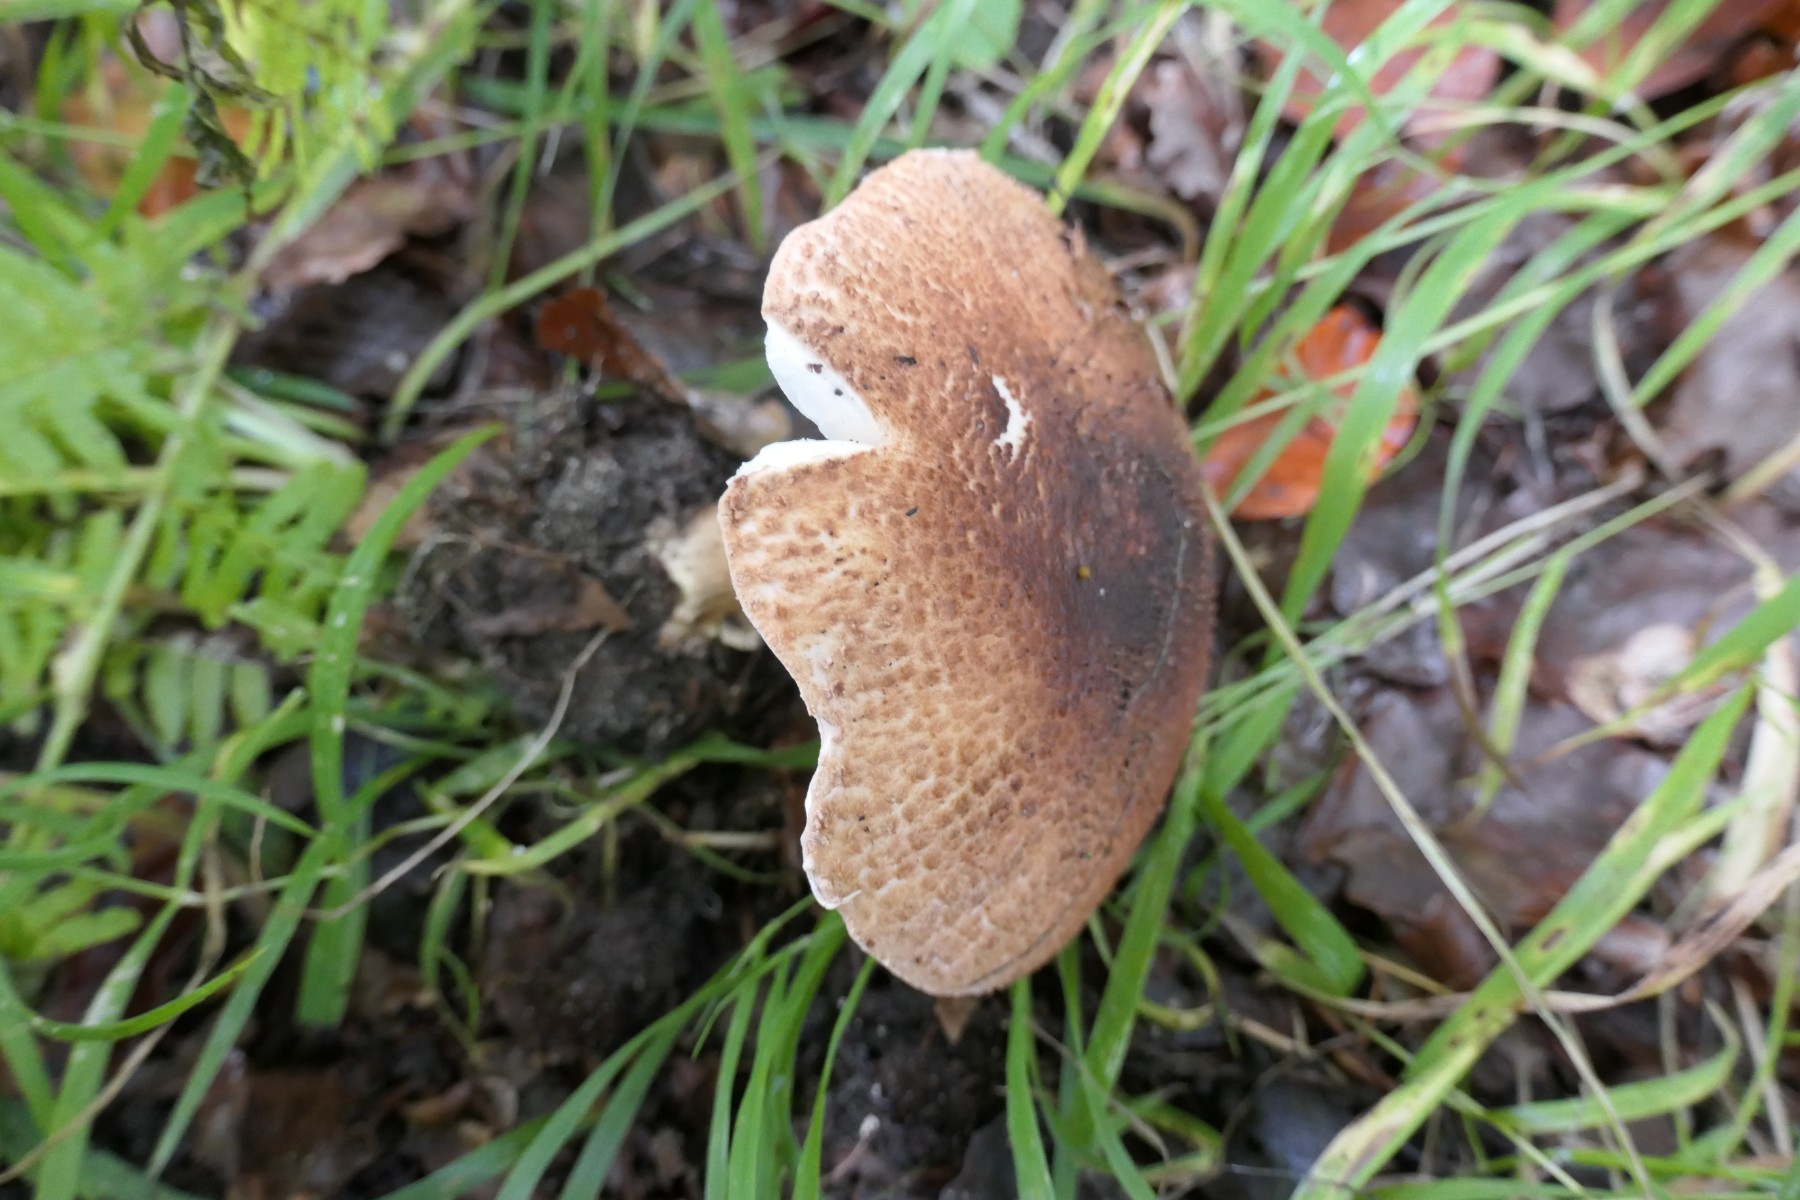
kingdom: Fungi
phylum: Basidiomycota
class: Agaricomycetes
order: Agaricales
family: Agaricaceae
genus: Echinoderma
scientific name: Echinoderma asperum
